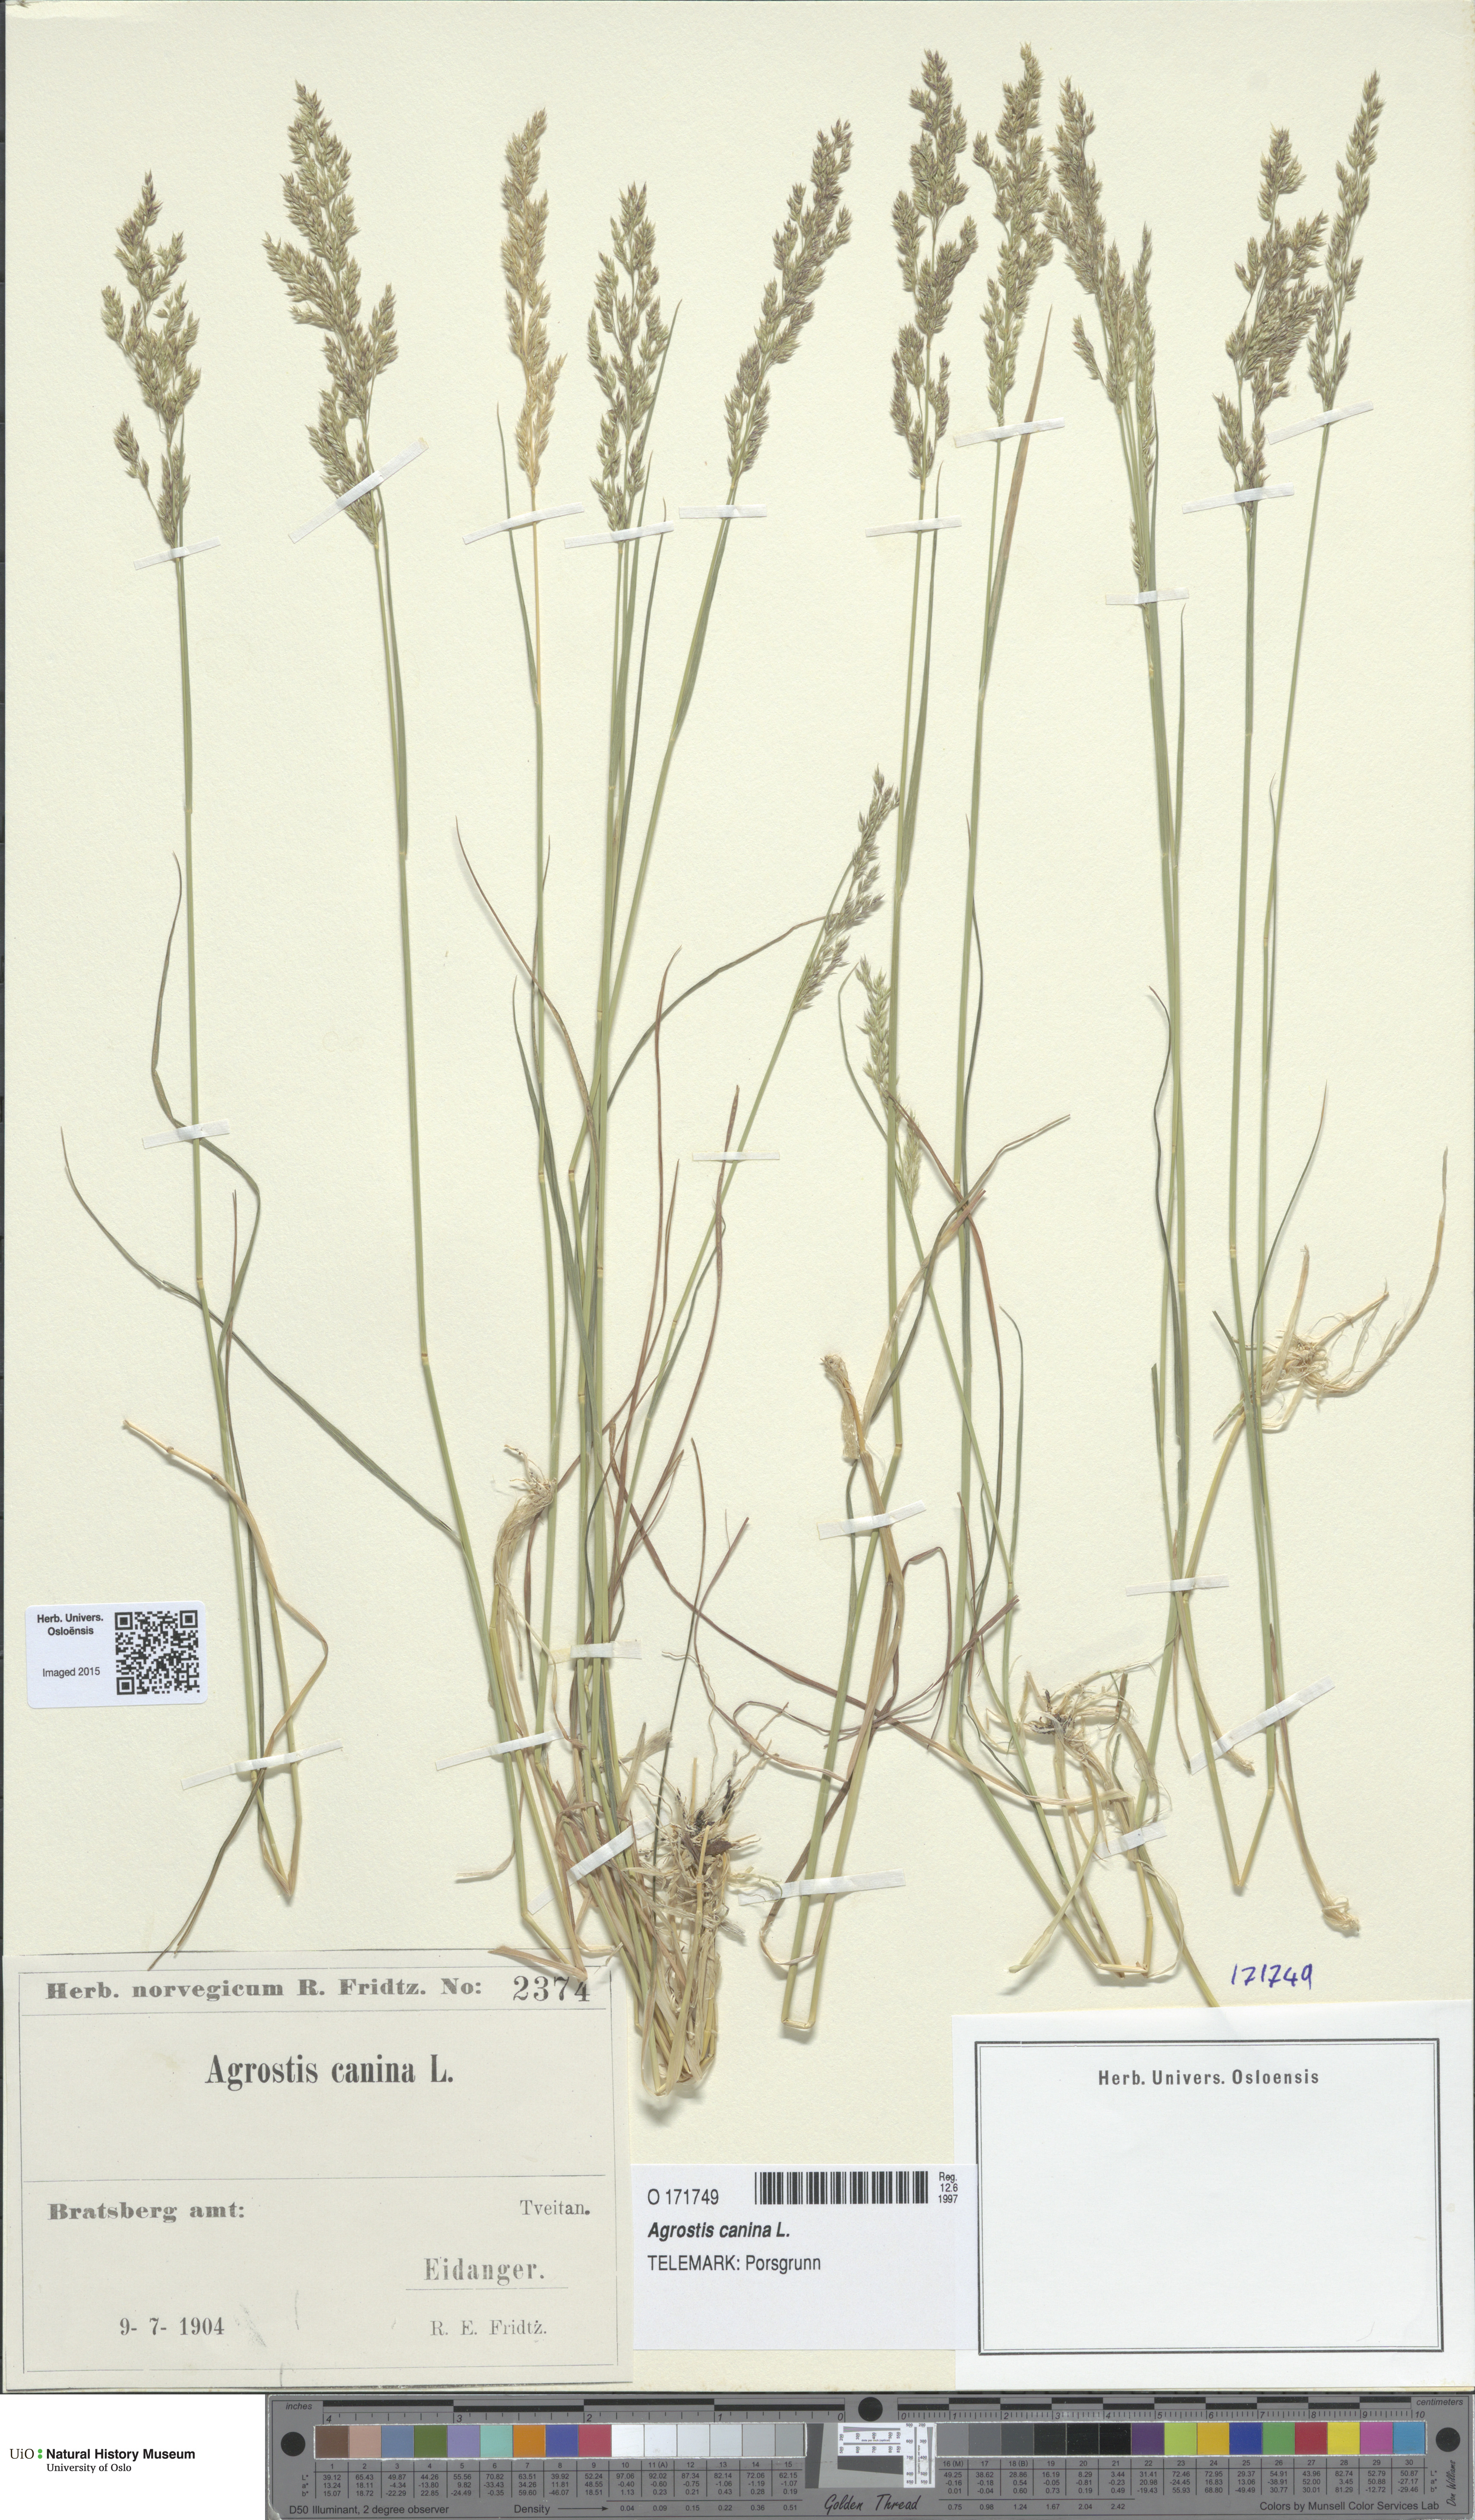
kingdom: Plantae
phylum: Tracheophyta
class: Liliopsida
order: Poales
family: Poaceae
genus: Agrostis
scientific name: Agrostis canina
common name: Velvet bent
